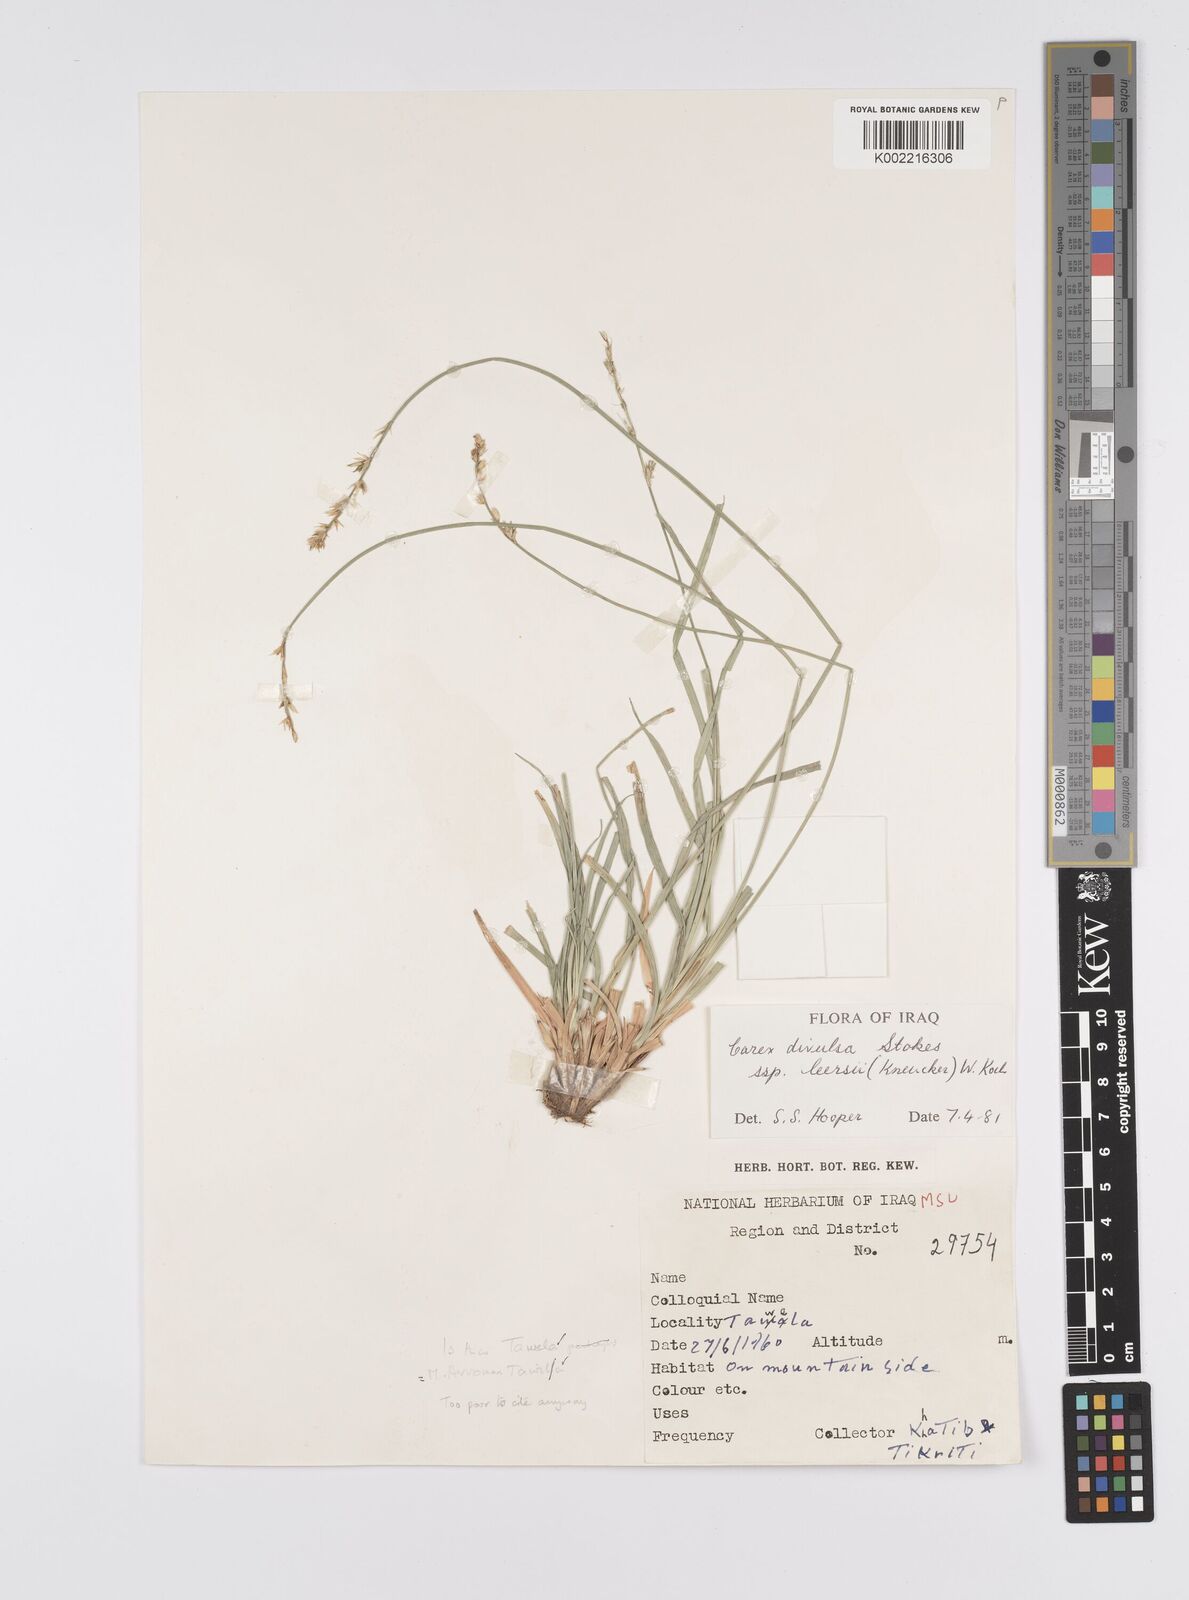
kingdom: Plantae
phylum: Tracheophyta
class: Liliopsida
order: Poales
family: Cyperaceae
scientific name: Cyperaceae
